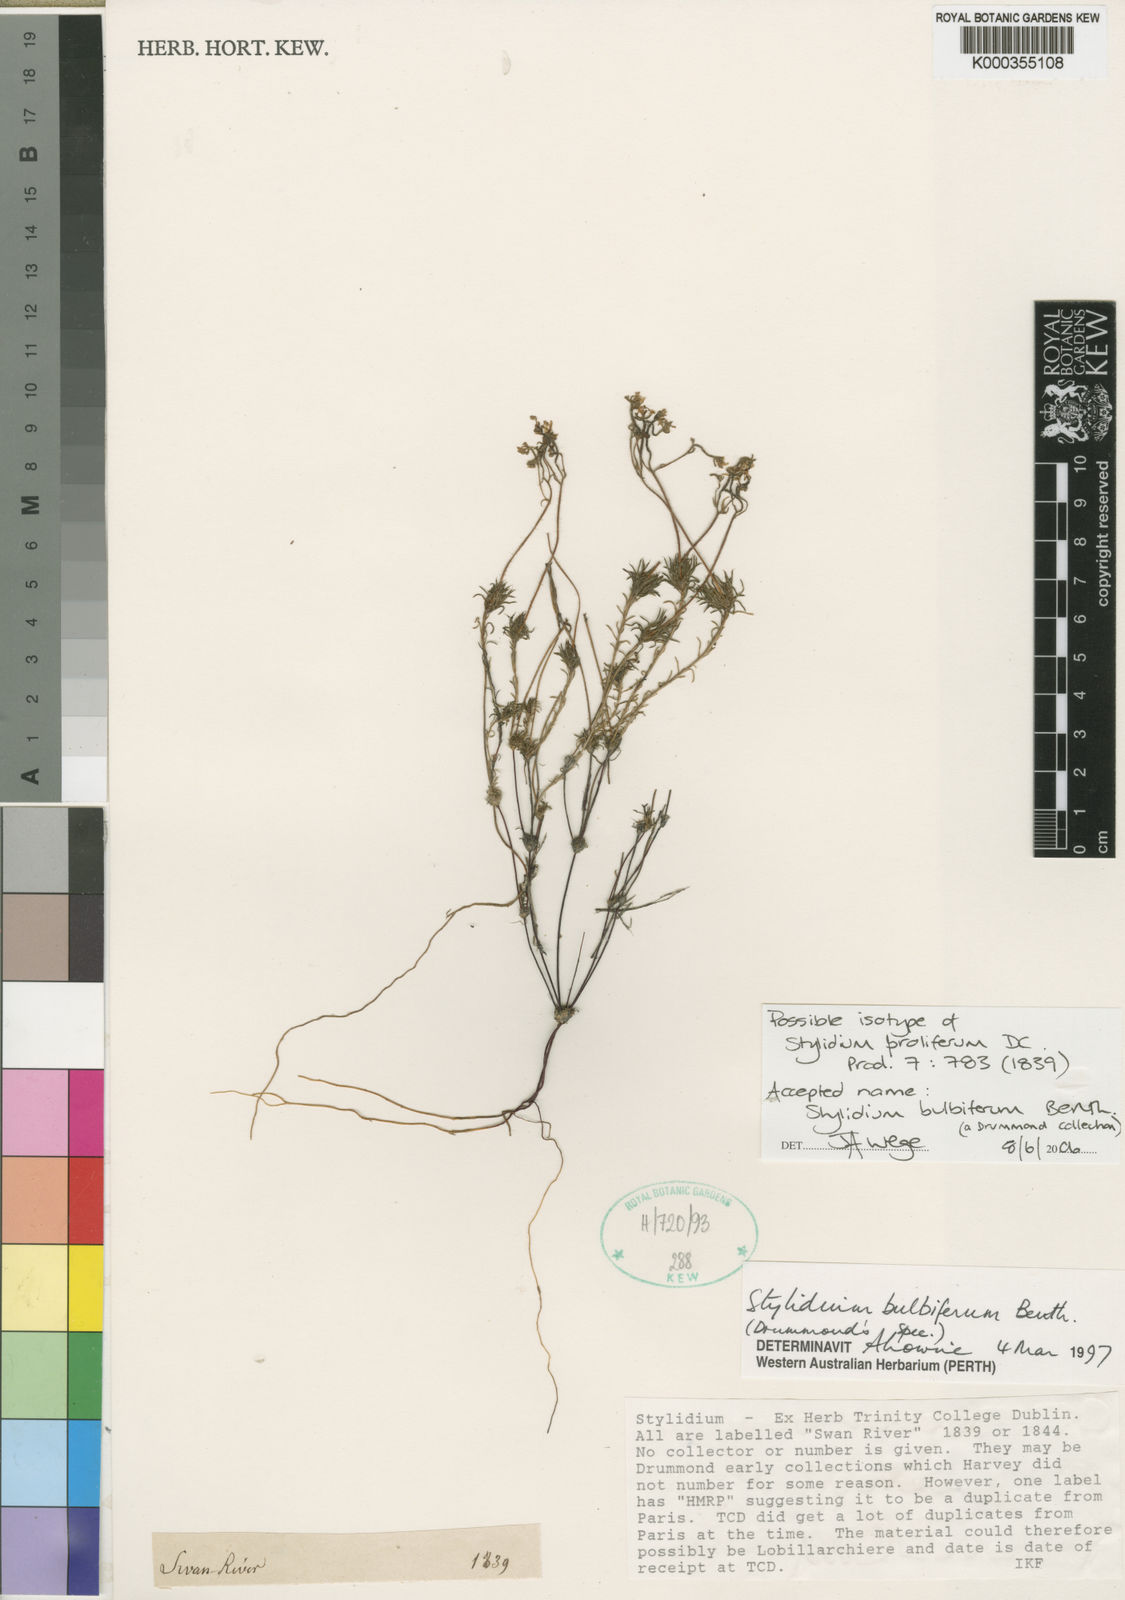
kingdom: Plantae
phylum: Tracheophyta
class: Magnoliopsida
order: Asterales
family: Stylidiaceae
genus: Stylidium
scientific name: Stylidium bulbiferum
